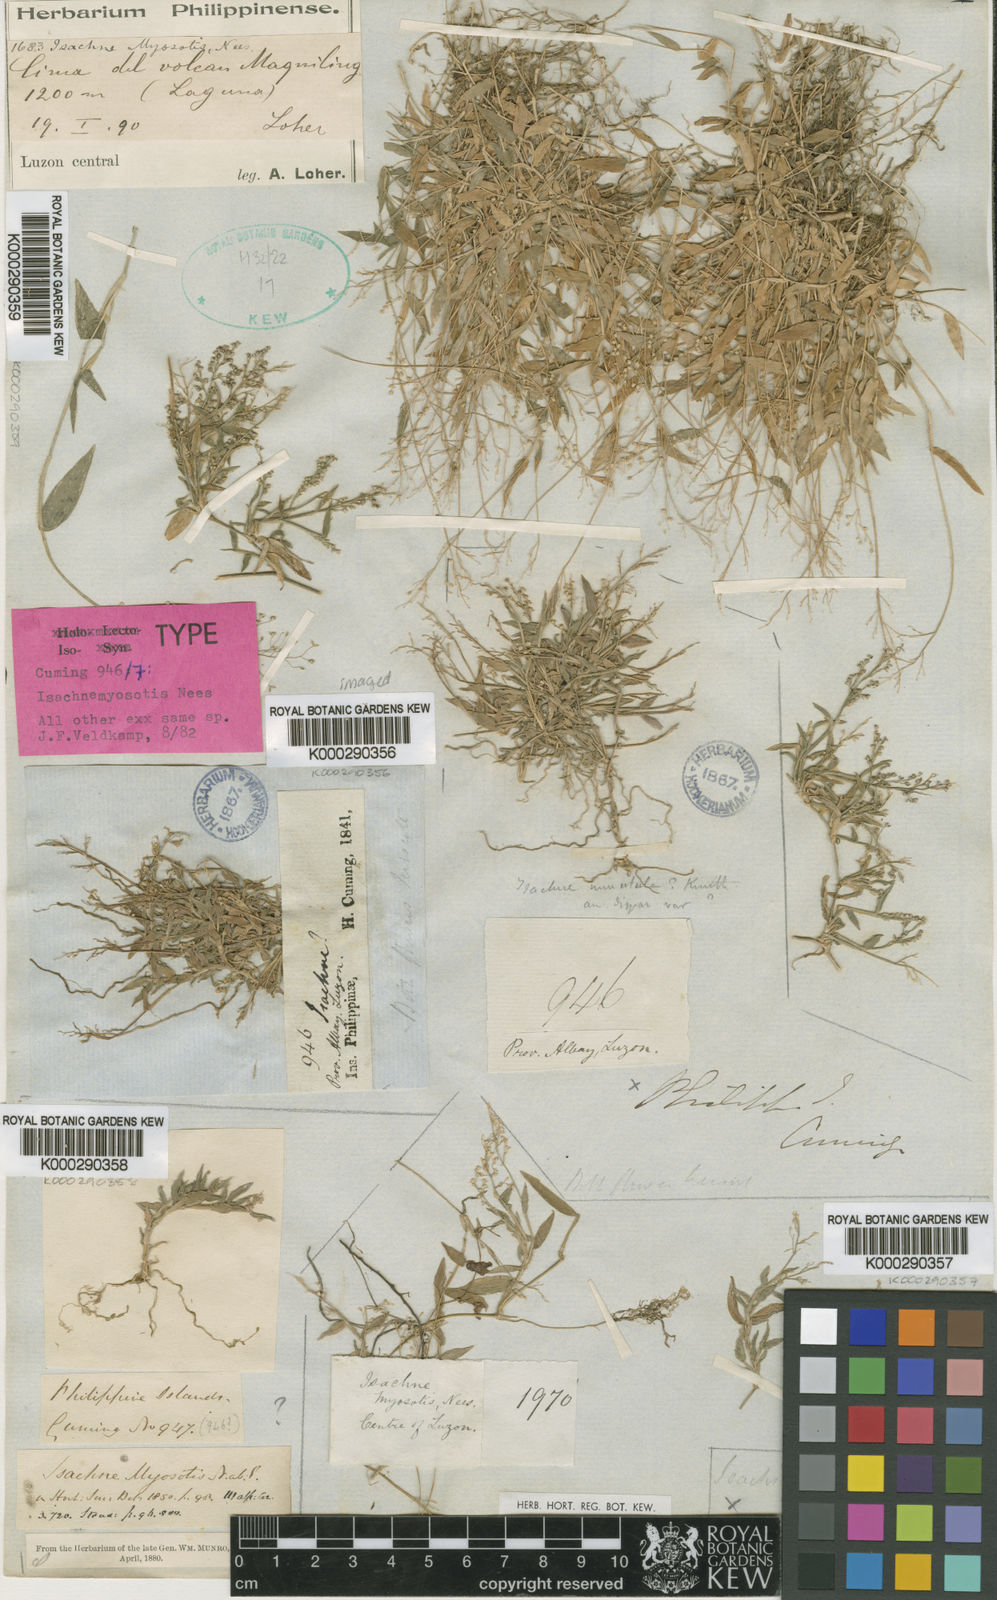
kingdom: Plantae
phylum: Tracheophyta
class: Liliopsida
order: Poales
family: Poaceae
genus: Isachne
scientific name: Isachne myosotis
